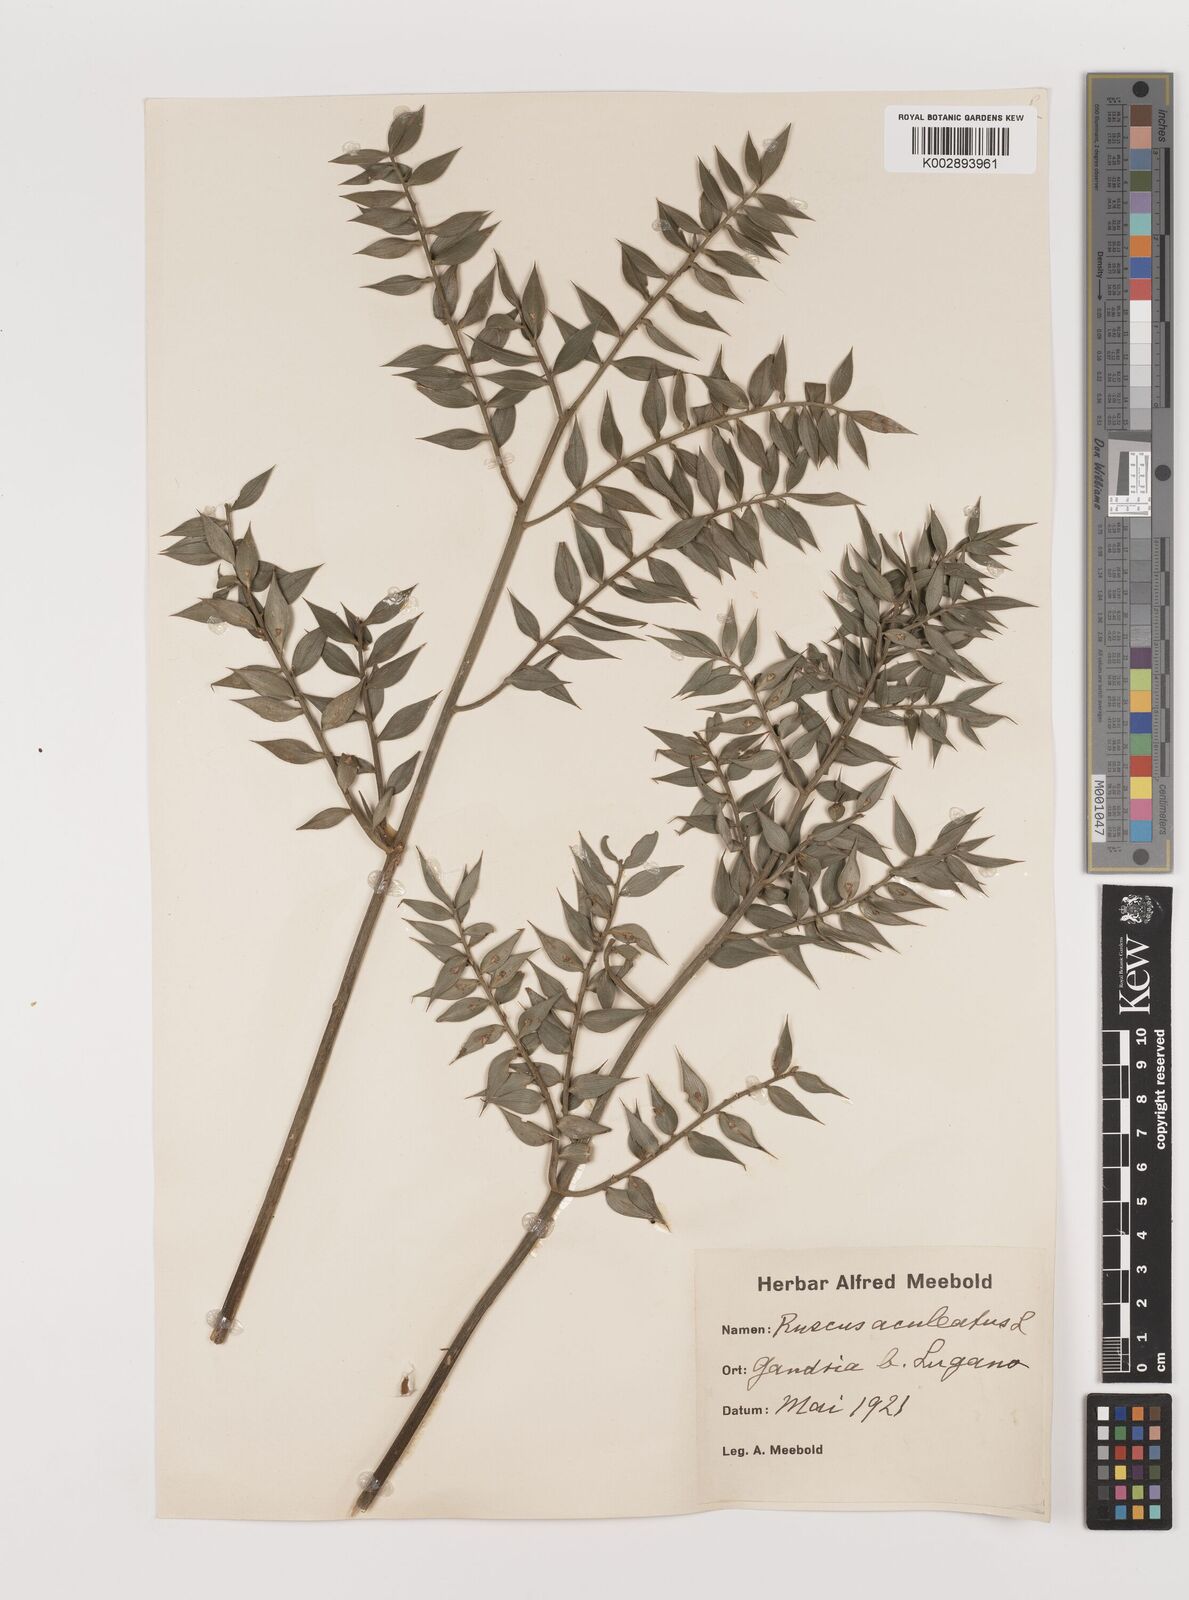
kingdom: Plantae
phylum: Tracheophyta
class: Liliopsida
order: Asparagales
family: Asparagaceae
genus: Ruscus
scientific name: Ruscus
